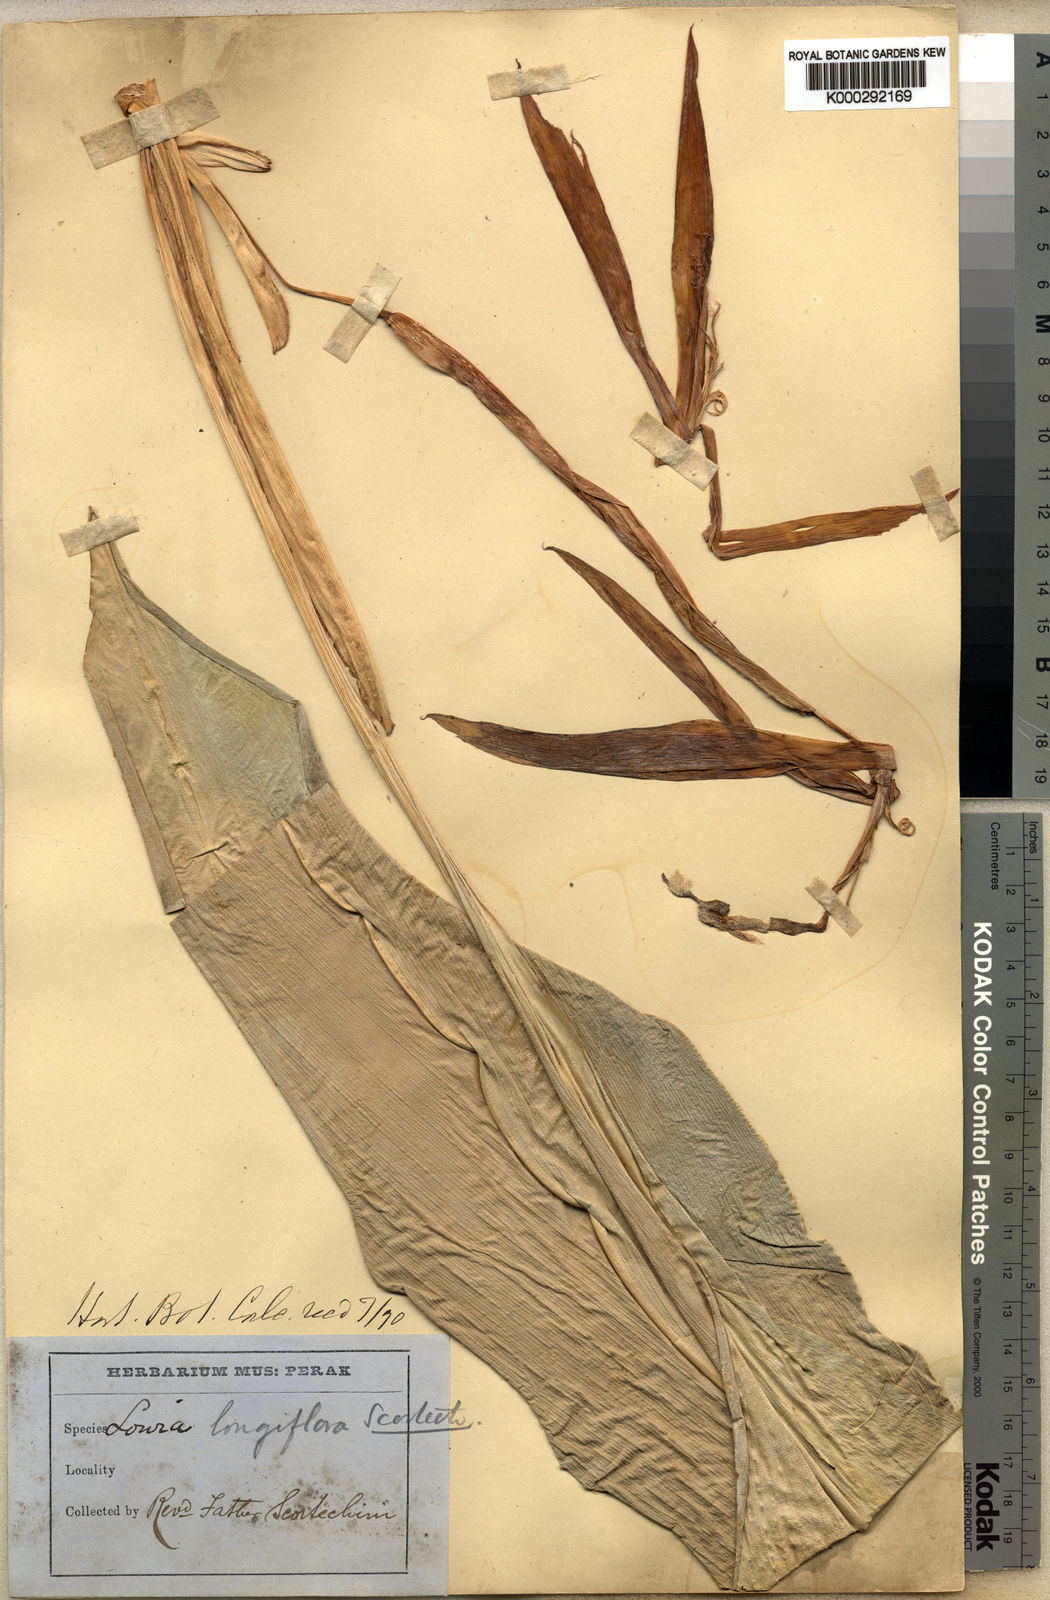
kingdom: Plantae
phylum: Tracheophyta
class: Liliopsida
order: Zingiberales
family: Lowiaceae
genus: Orchidantha
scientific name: Orchidantha longiflora
